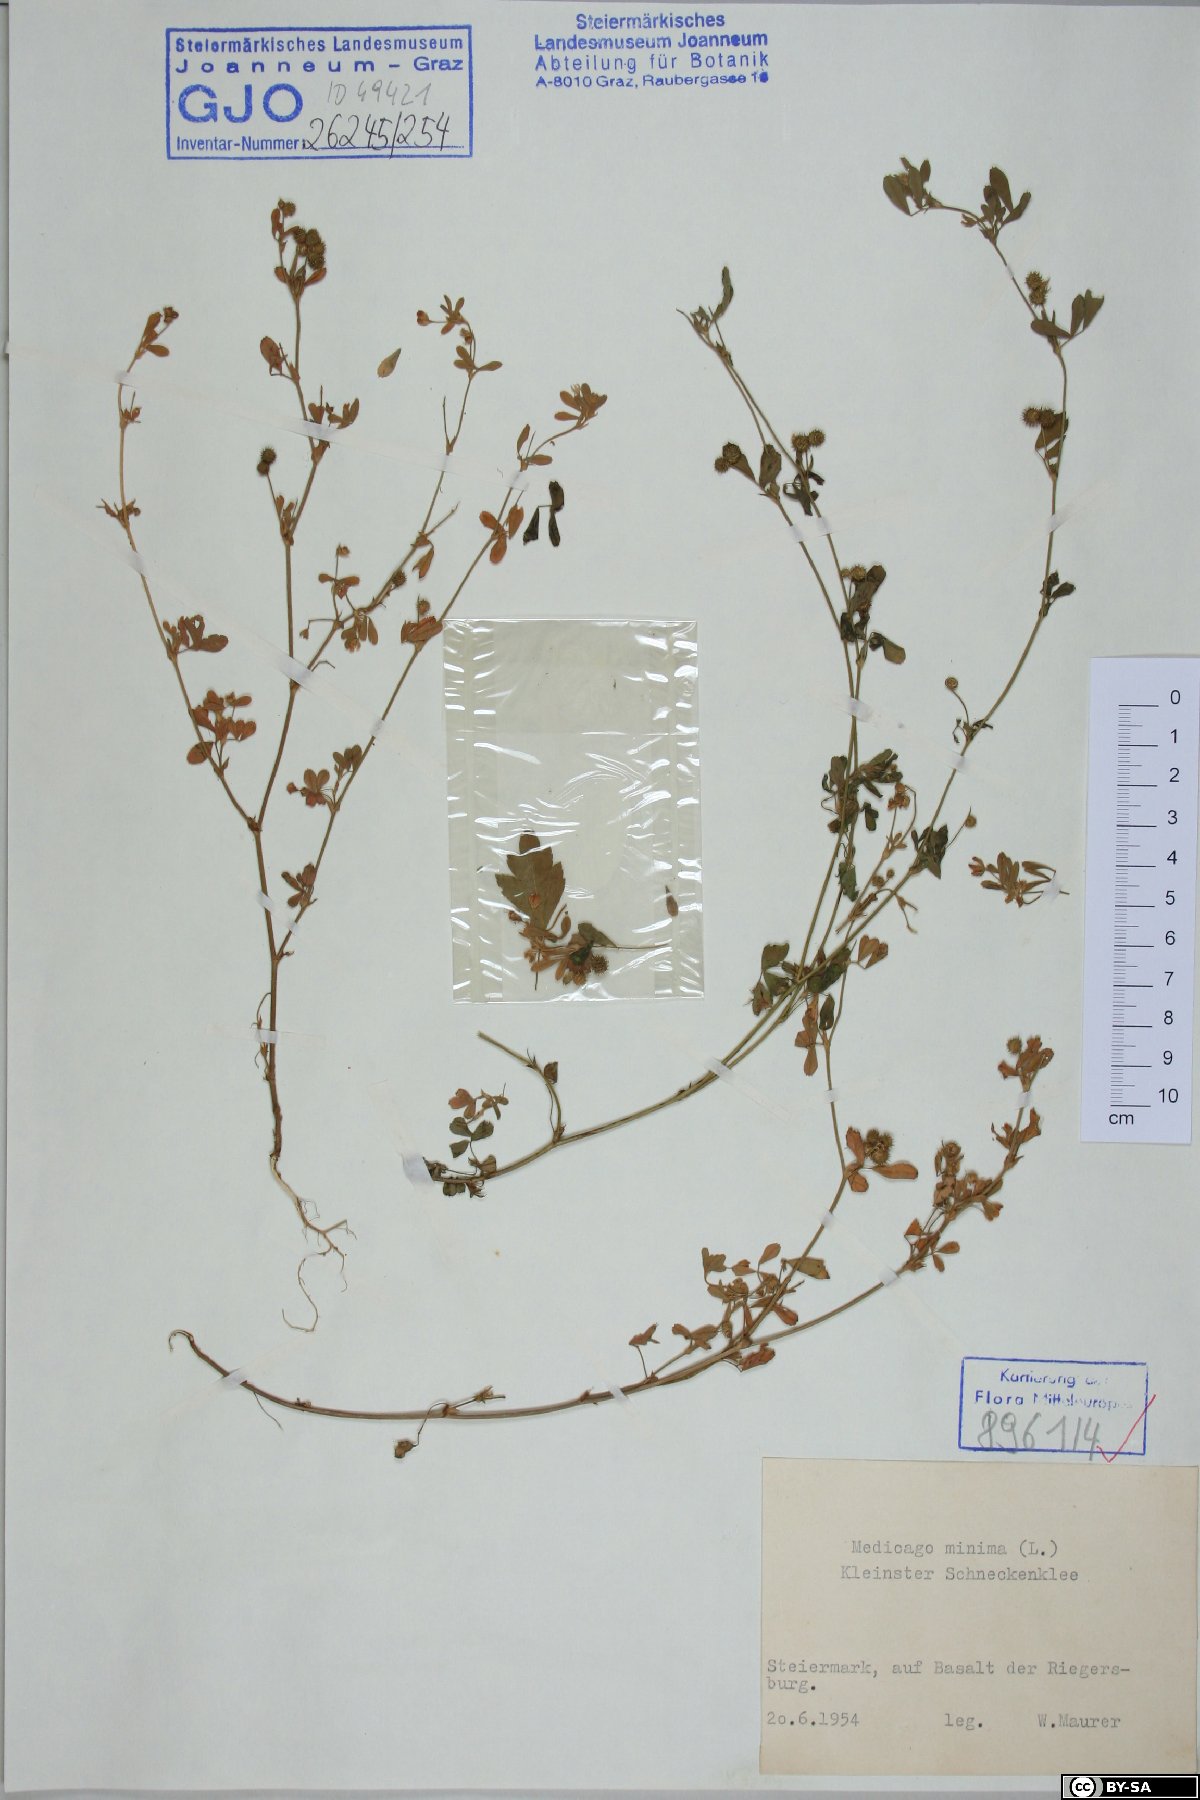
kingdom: Plantae
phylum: Tracheophyta
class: Magnoliopsida
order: Fabales
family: Fabaceae
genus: Medicago
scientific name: Medicago minima
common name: Little bur-clover
